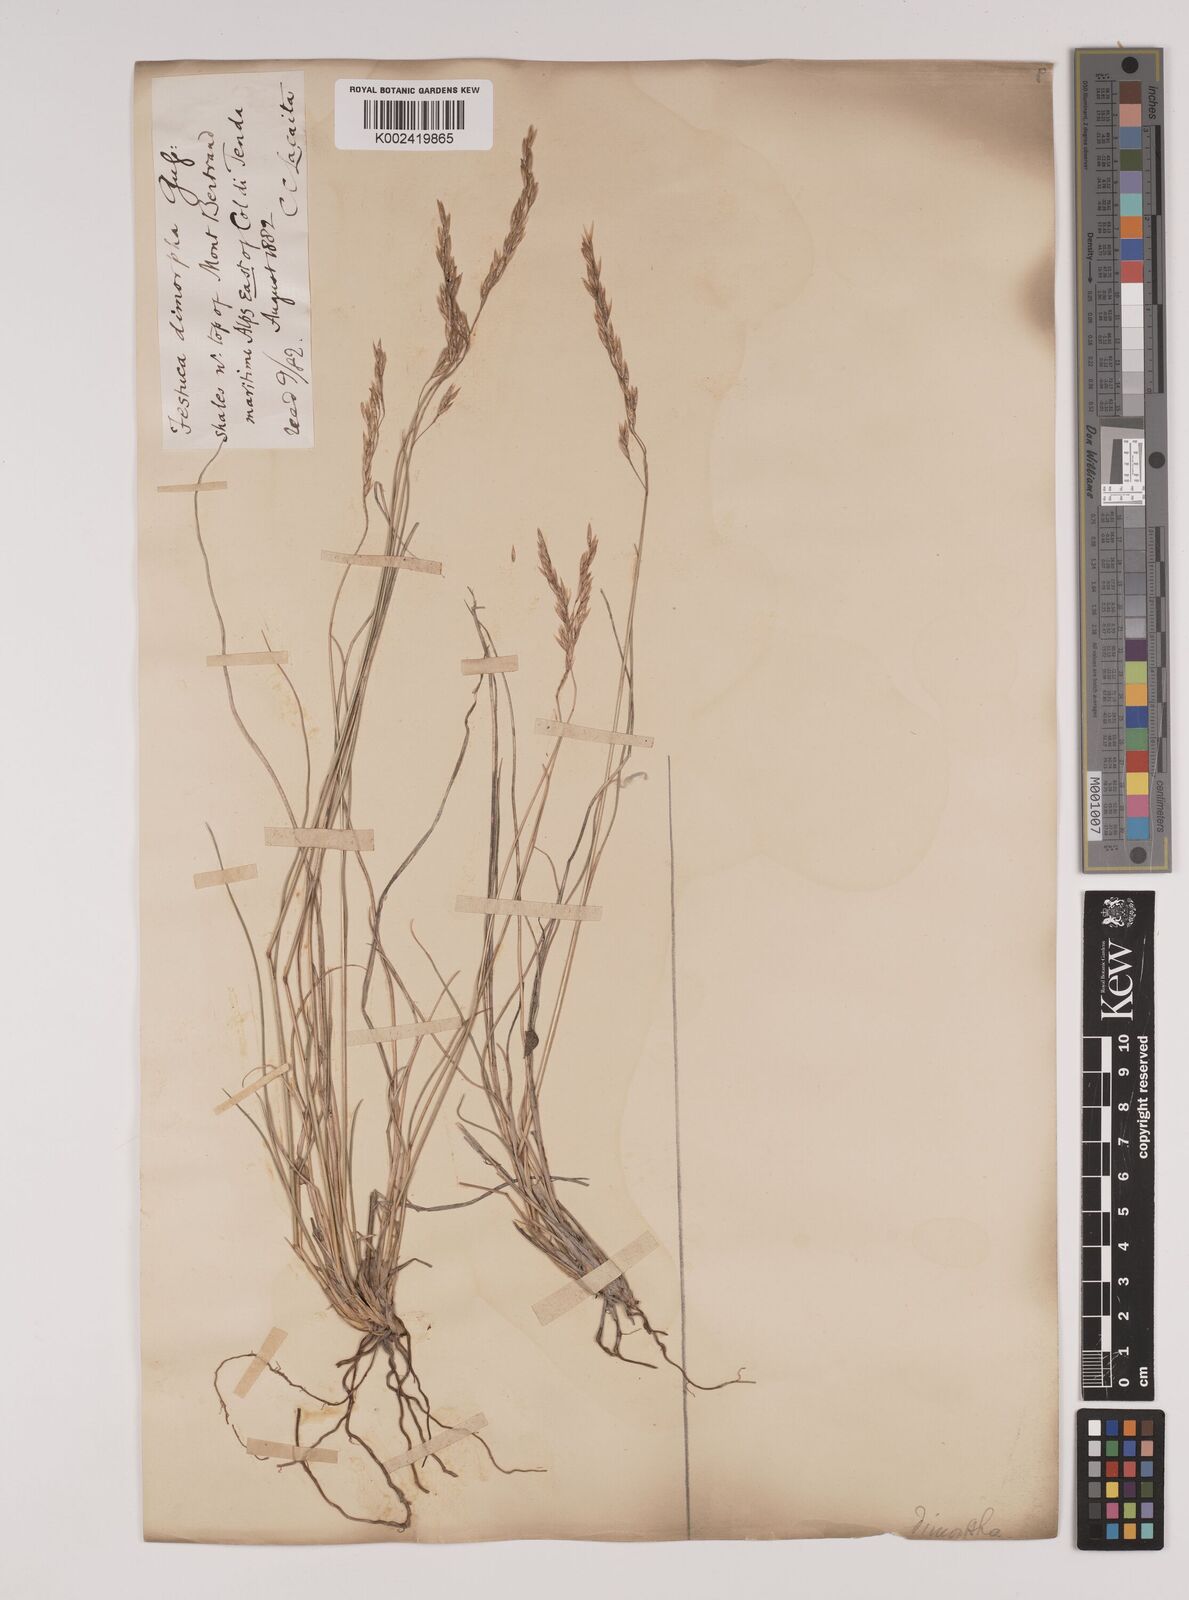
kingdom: Plantae
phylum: Tracheophyta
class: Liliopsida
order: Poales
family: Poaceae
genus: Festuca
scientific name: Festuca dimorpha
